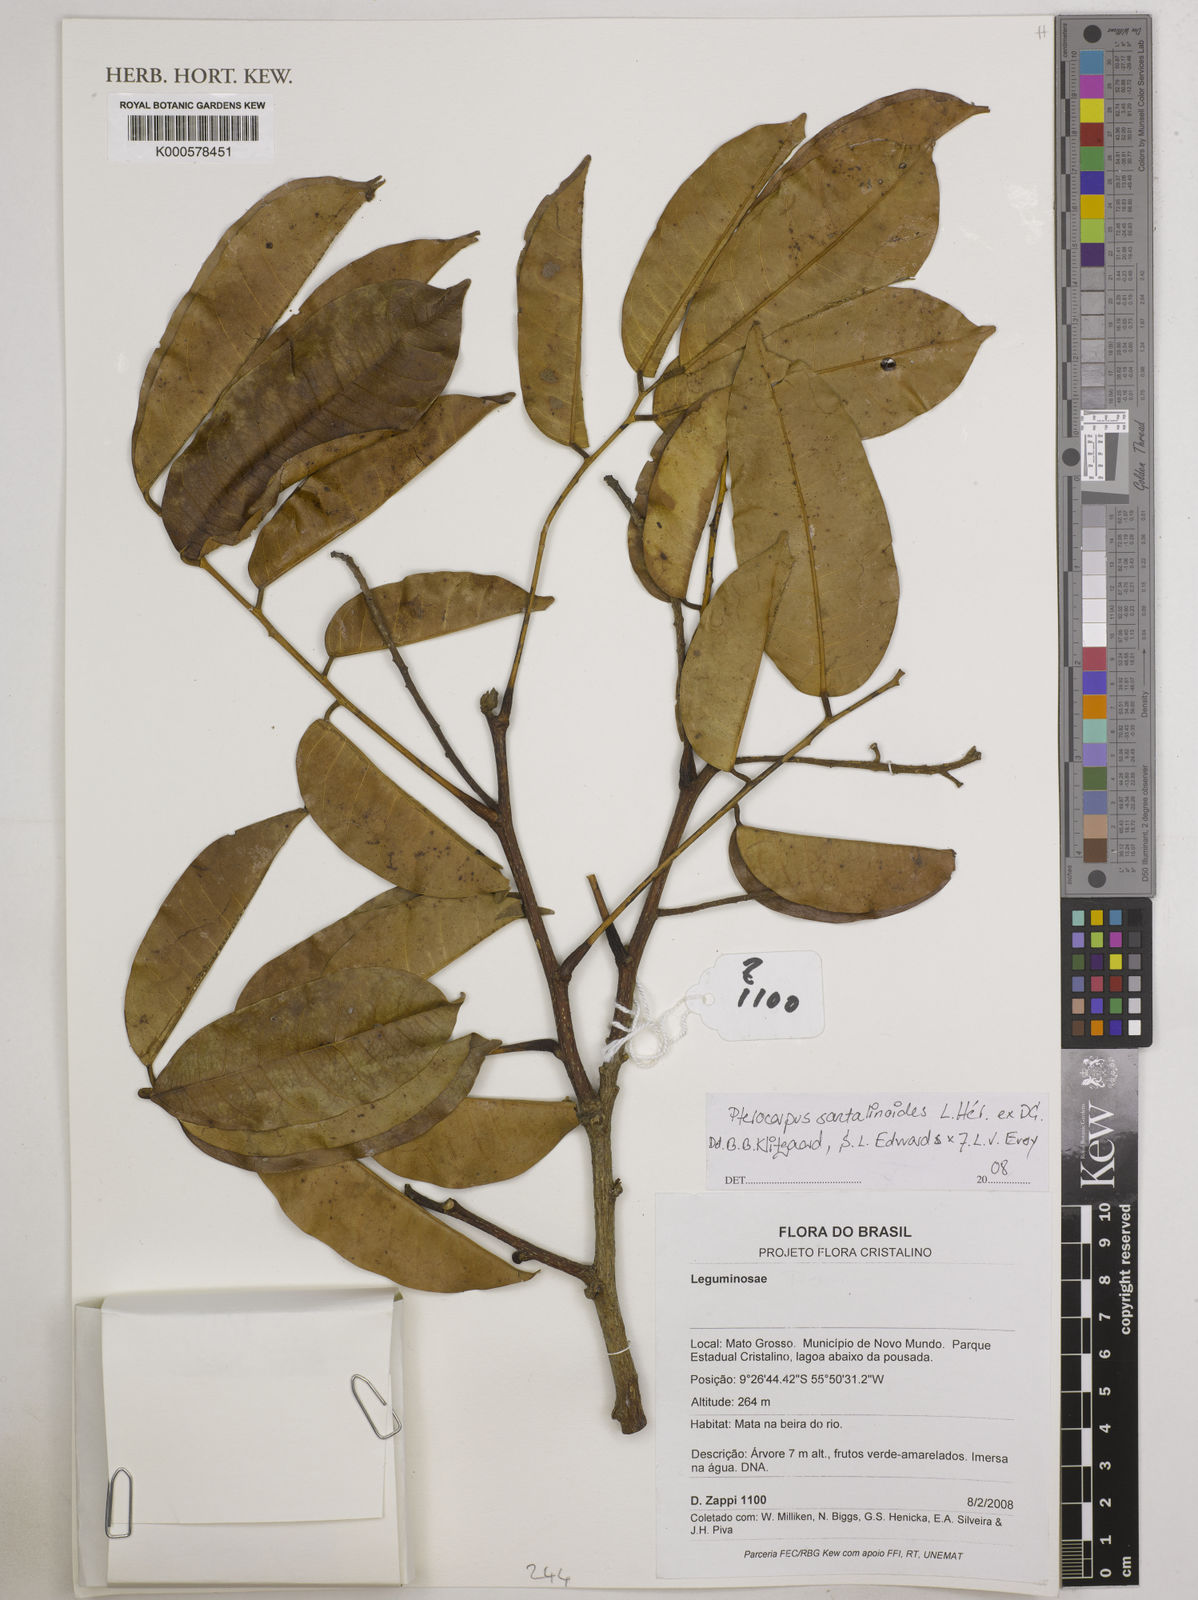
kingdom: Plantae
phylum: Tracheophyta
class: Magnoliopsida
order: Fabales
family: Fabaceae
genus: Pterocarpus
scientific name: Pterocarpus
